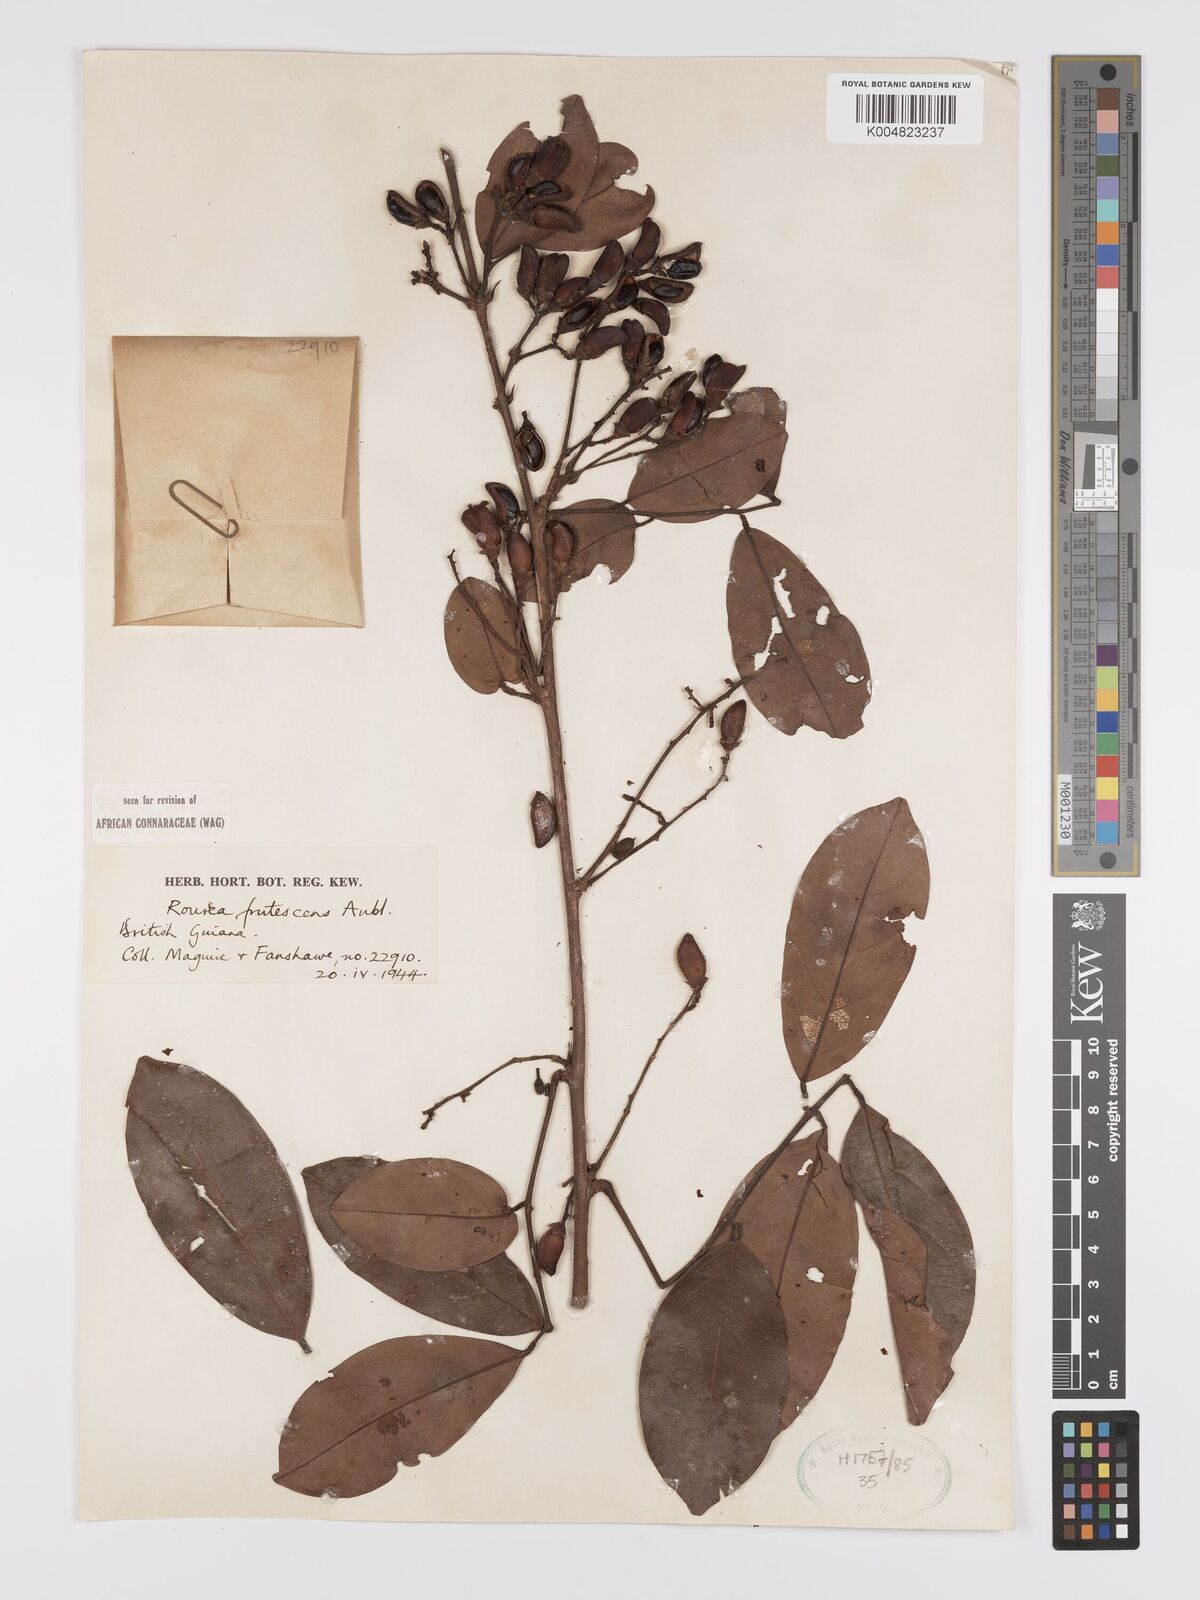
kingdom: Plantae
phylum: Tracheophyta
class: Magnoliopsida
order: Oxalidales
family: Connaraceae
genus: Rourea
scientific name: Rourea frutescens
